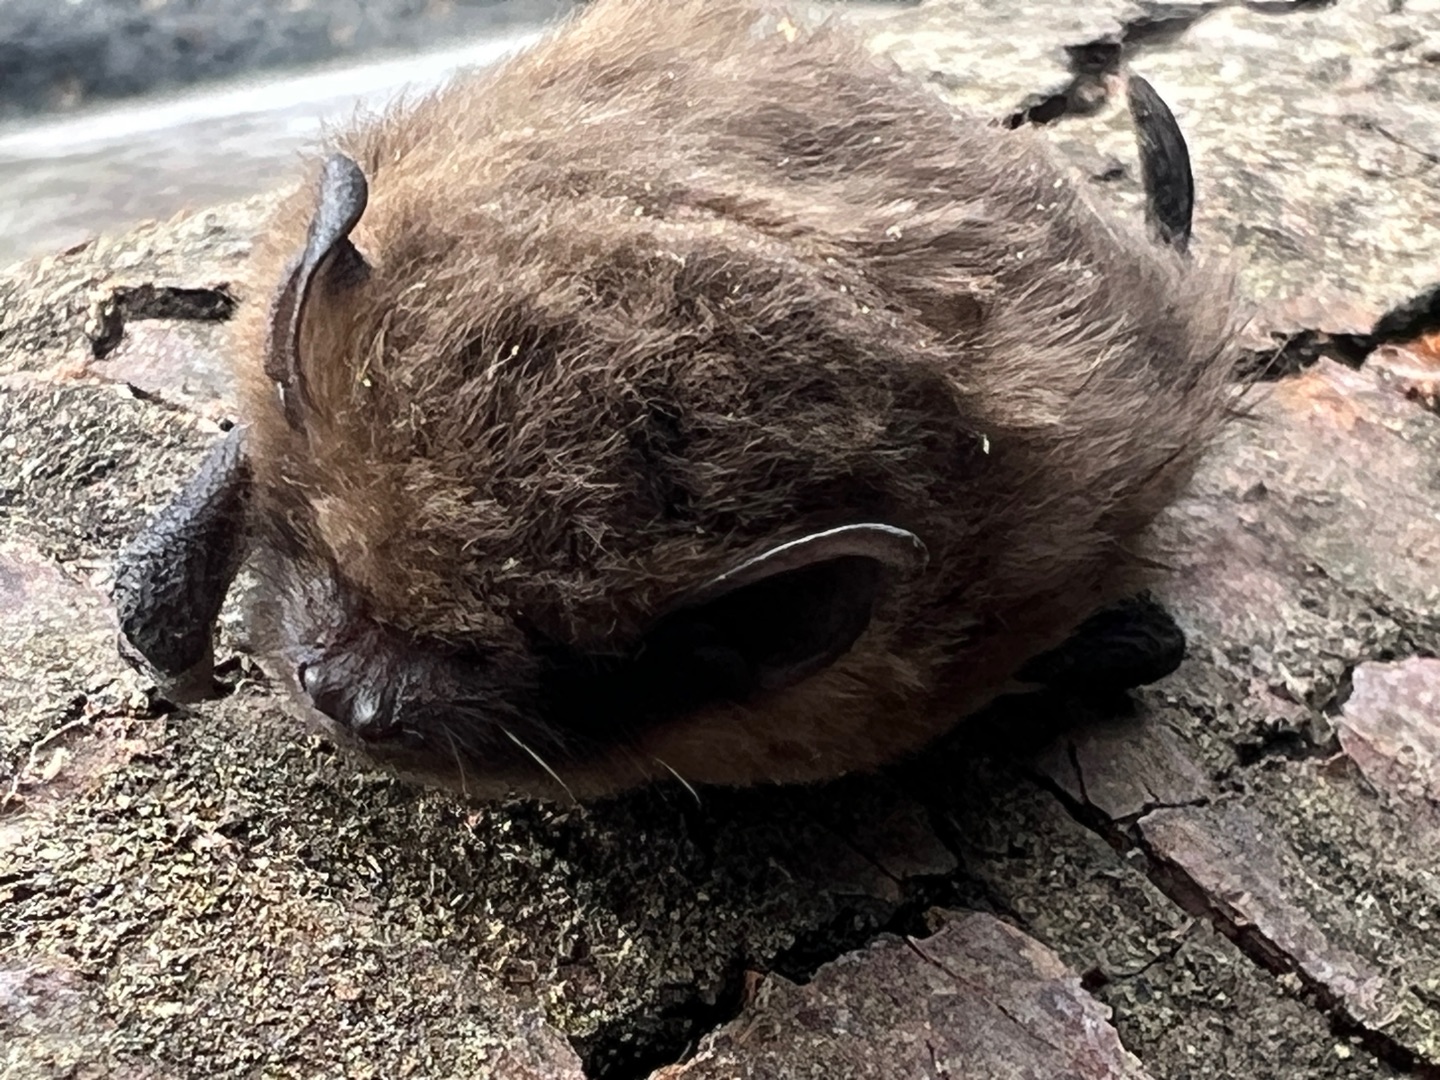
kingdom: Animalia
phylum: Chordata
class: Mammalia
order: Chiroptera
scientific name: Chiroptera
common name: Flagermus
